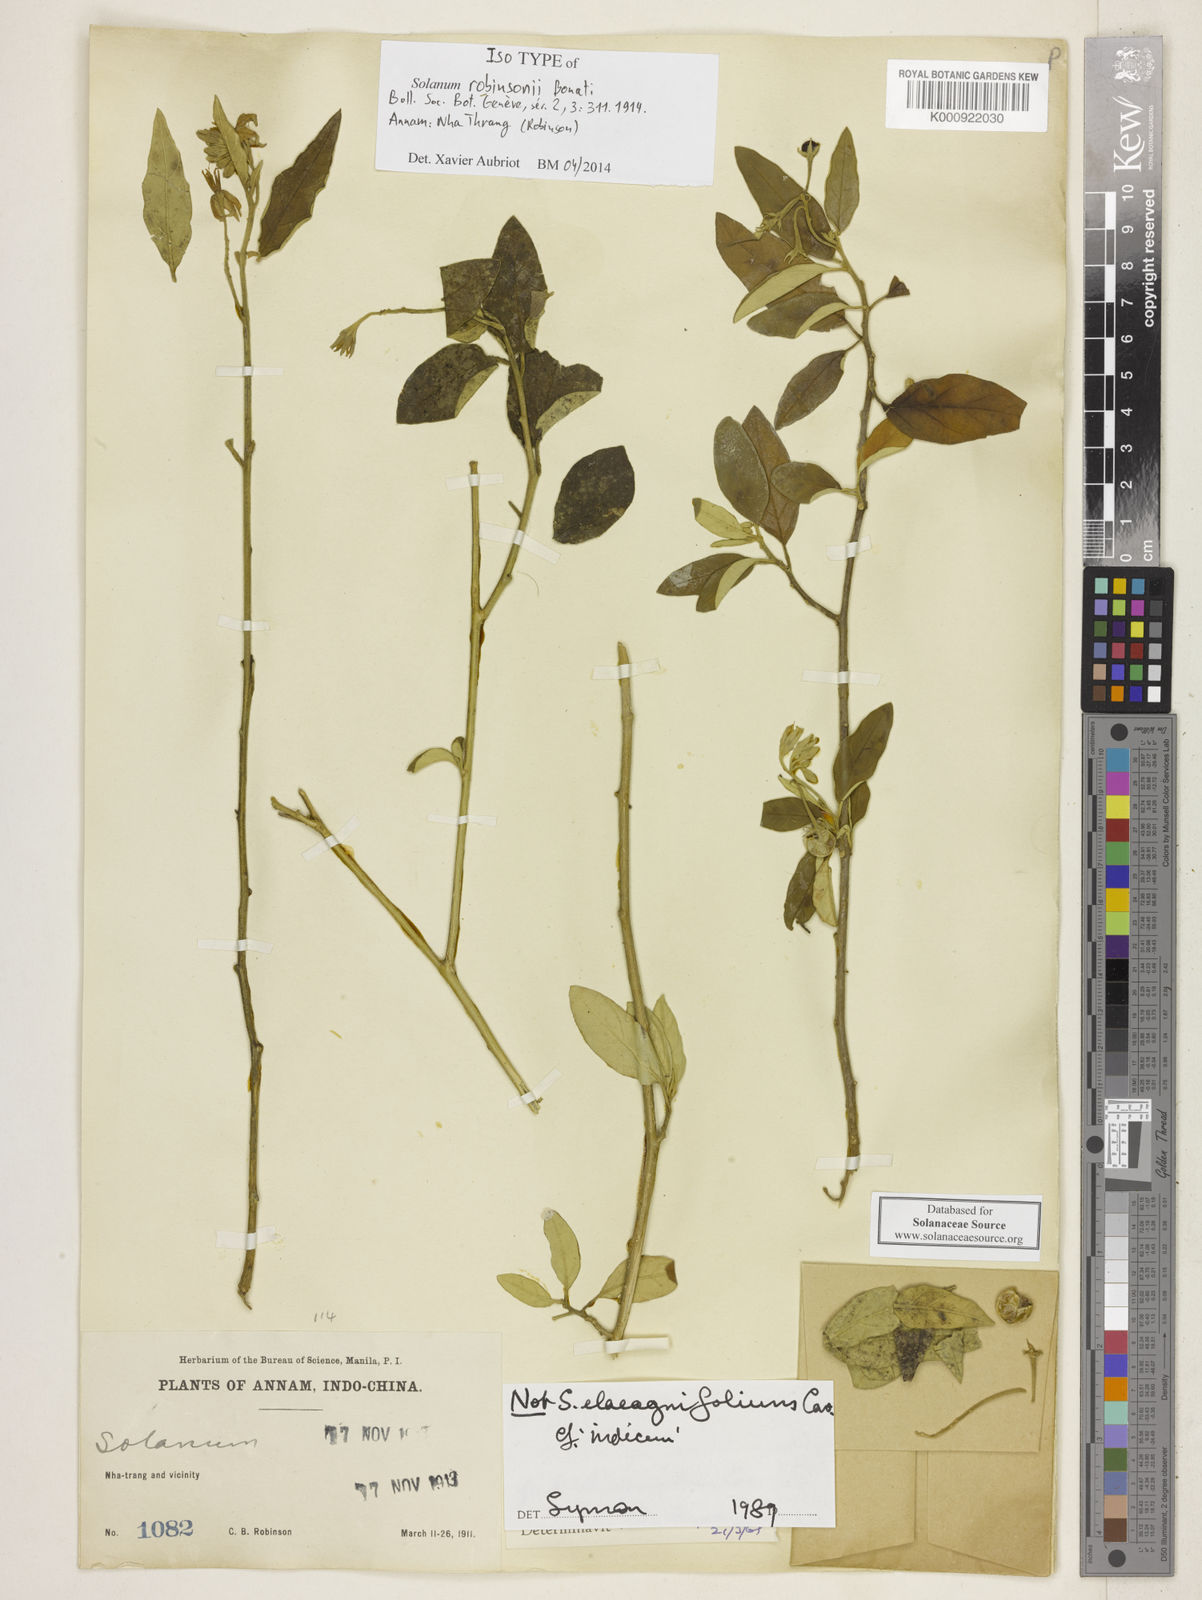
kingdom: Plantae
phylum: Tracheophyta
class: Magnoliopsida
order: Solanales
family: Solanaceae
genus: Solanum
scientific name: Solanum robinsonii
